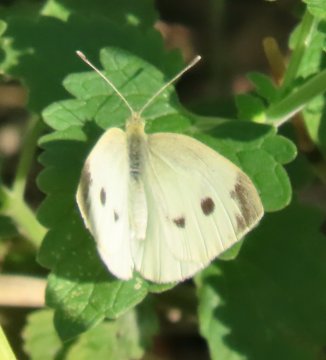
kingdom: Animalia
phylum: Arthropoda
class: Insecta
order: Lepidoptera
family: Pieridae
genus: Pieris
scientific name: Pieris rapae
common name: Cabbage White
